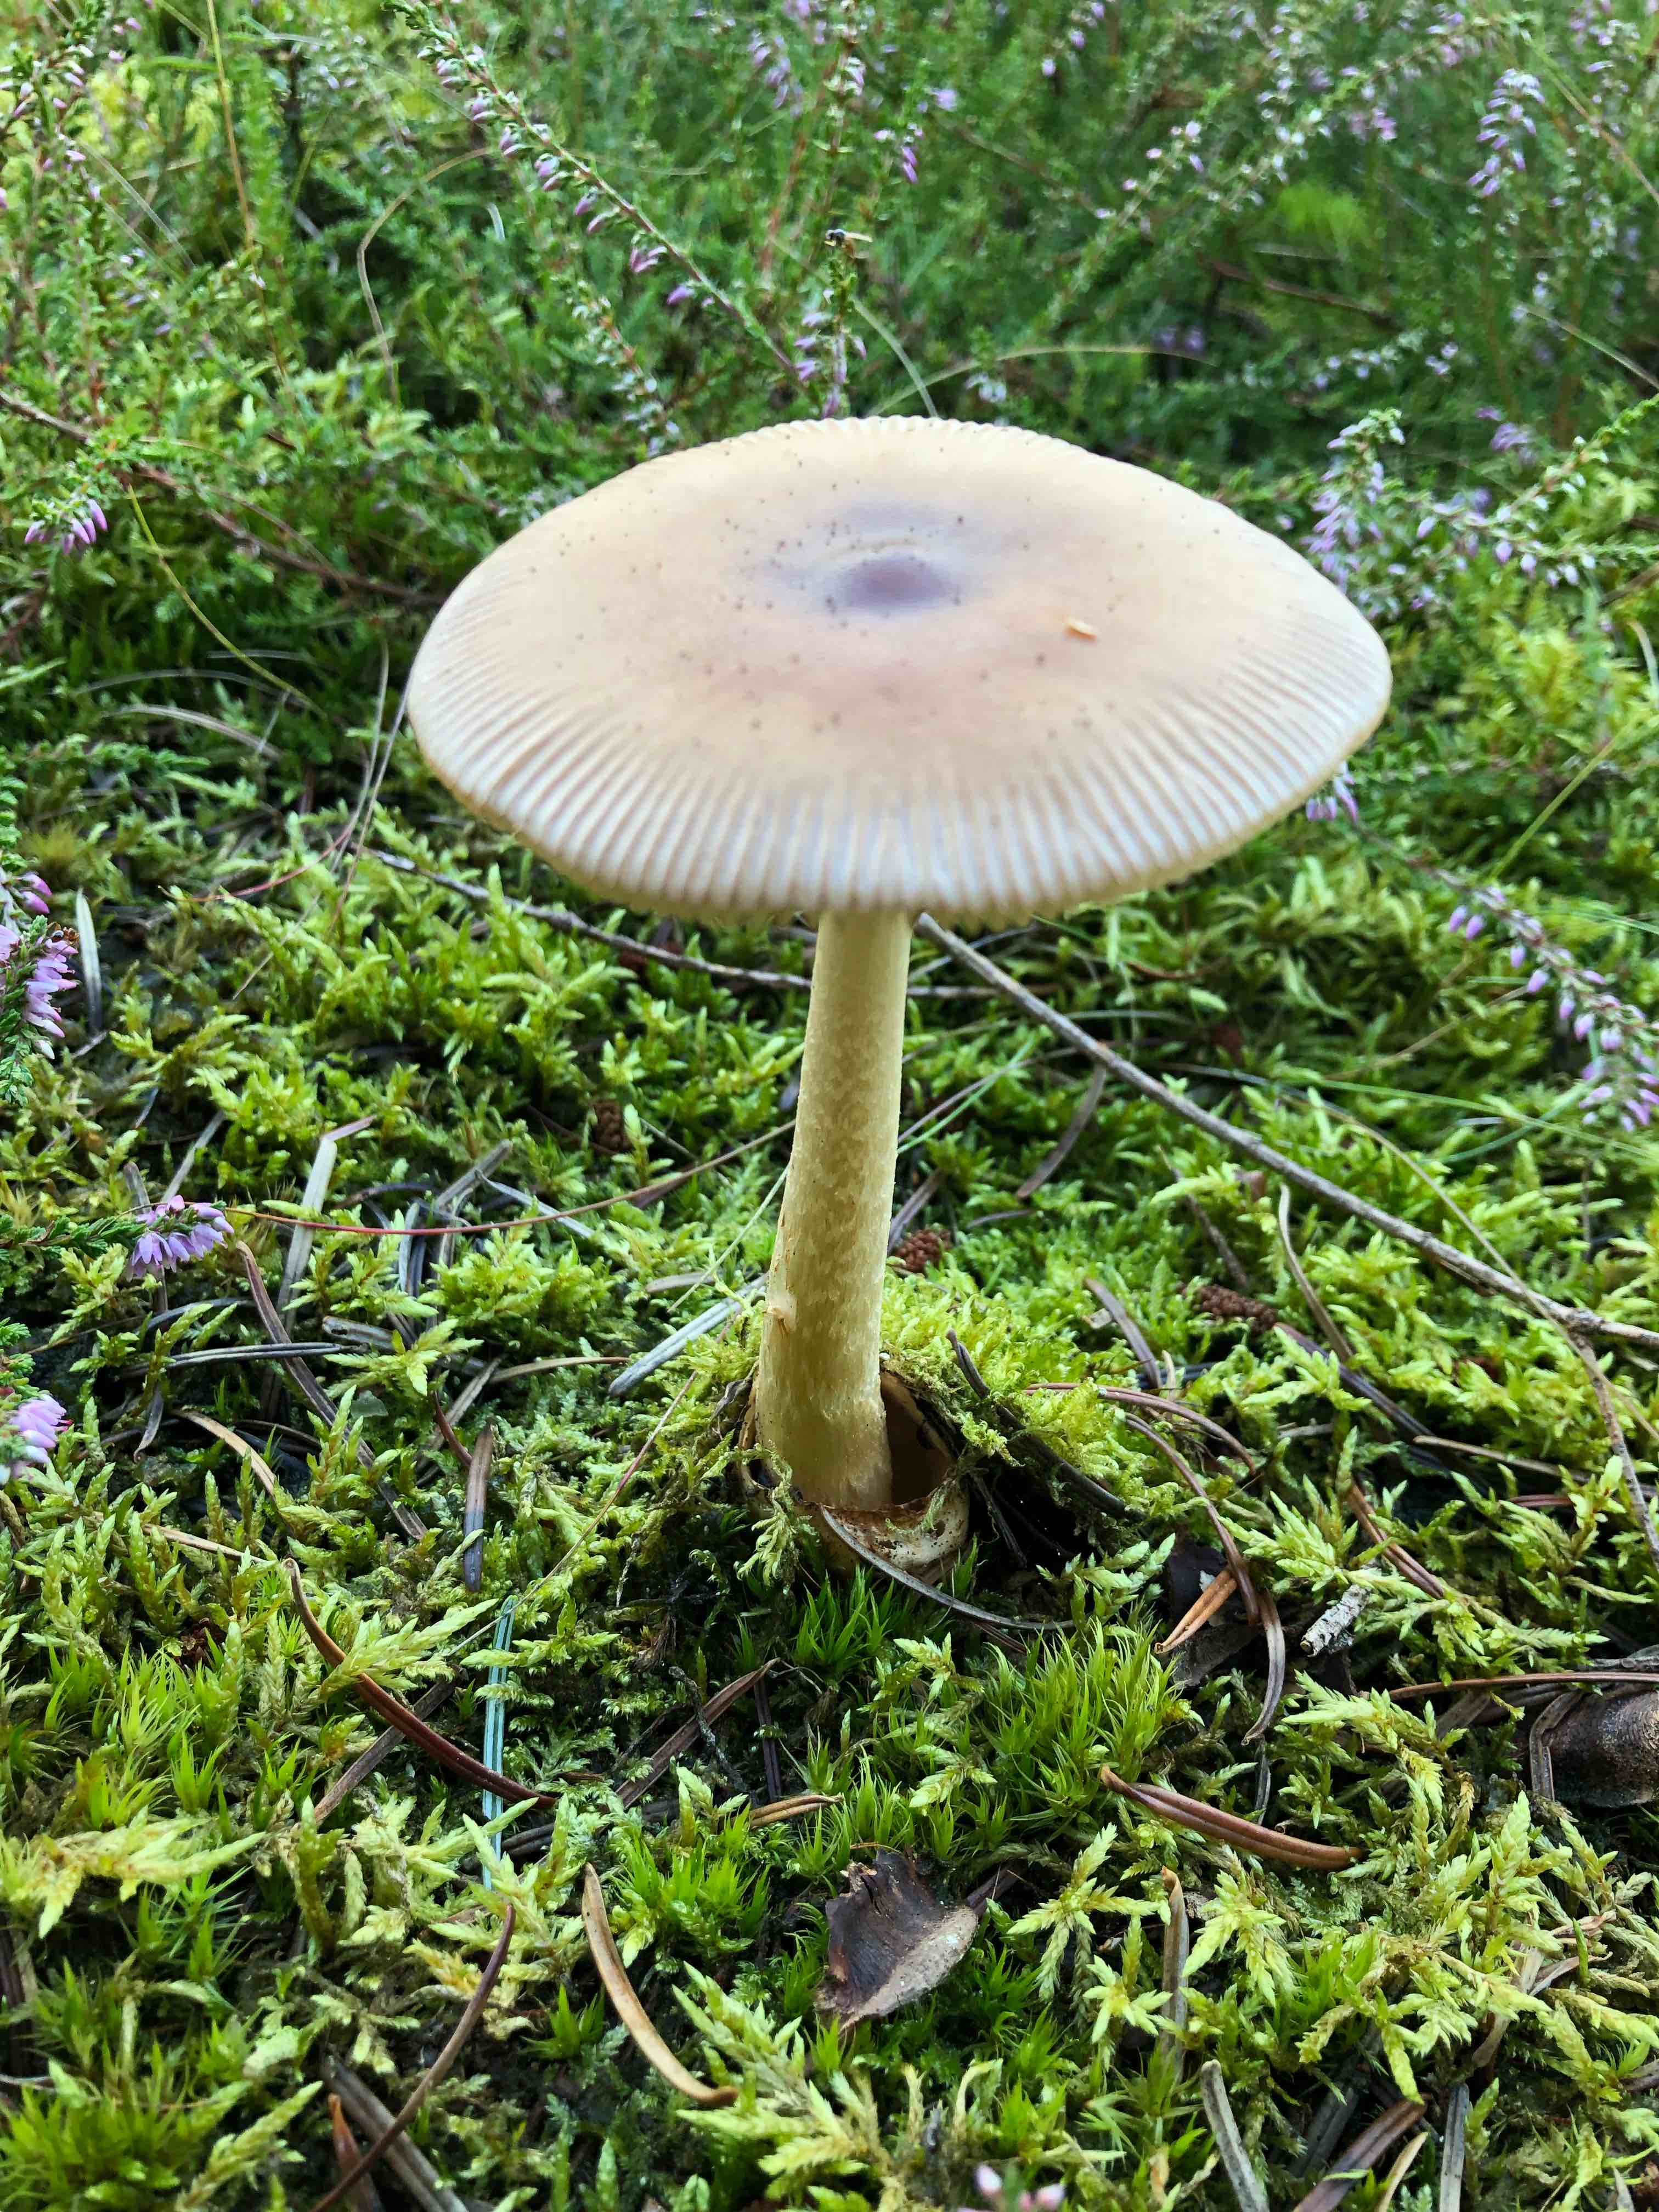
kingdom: Fungi
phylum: Basidiomycota
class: Agaricomycetes
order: Agaricales
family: Amanitaceae
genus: Amanita
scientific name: Amanita fulva
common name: brun kam-fluesvamp
